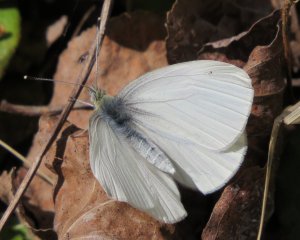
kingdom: Animalia
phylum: Arthropoda
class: Insecta
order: Lepidoptera
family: Pieridae
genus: Pieris
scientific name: Pieris oleracea
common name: Mustard White
